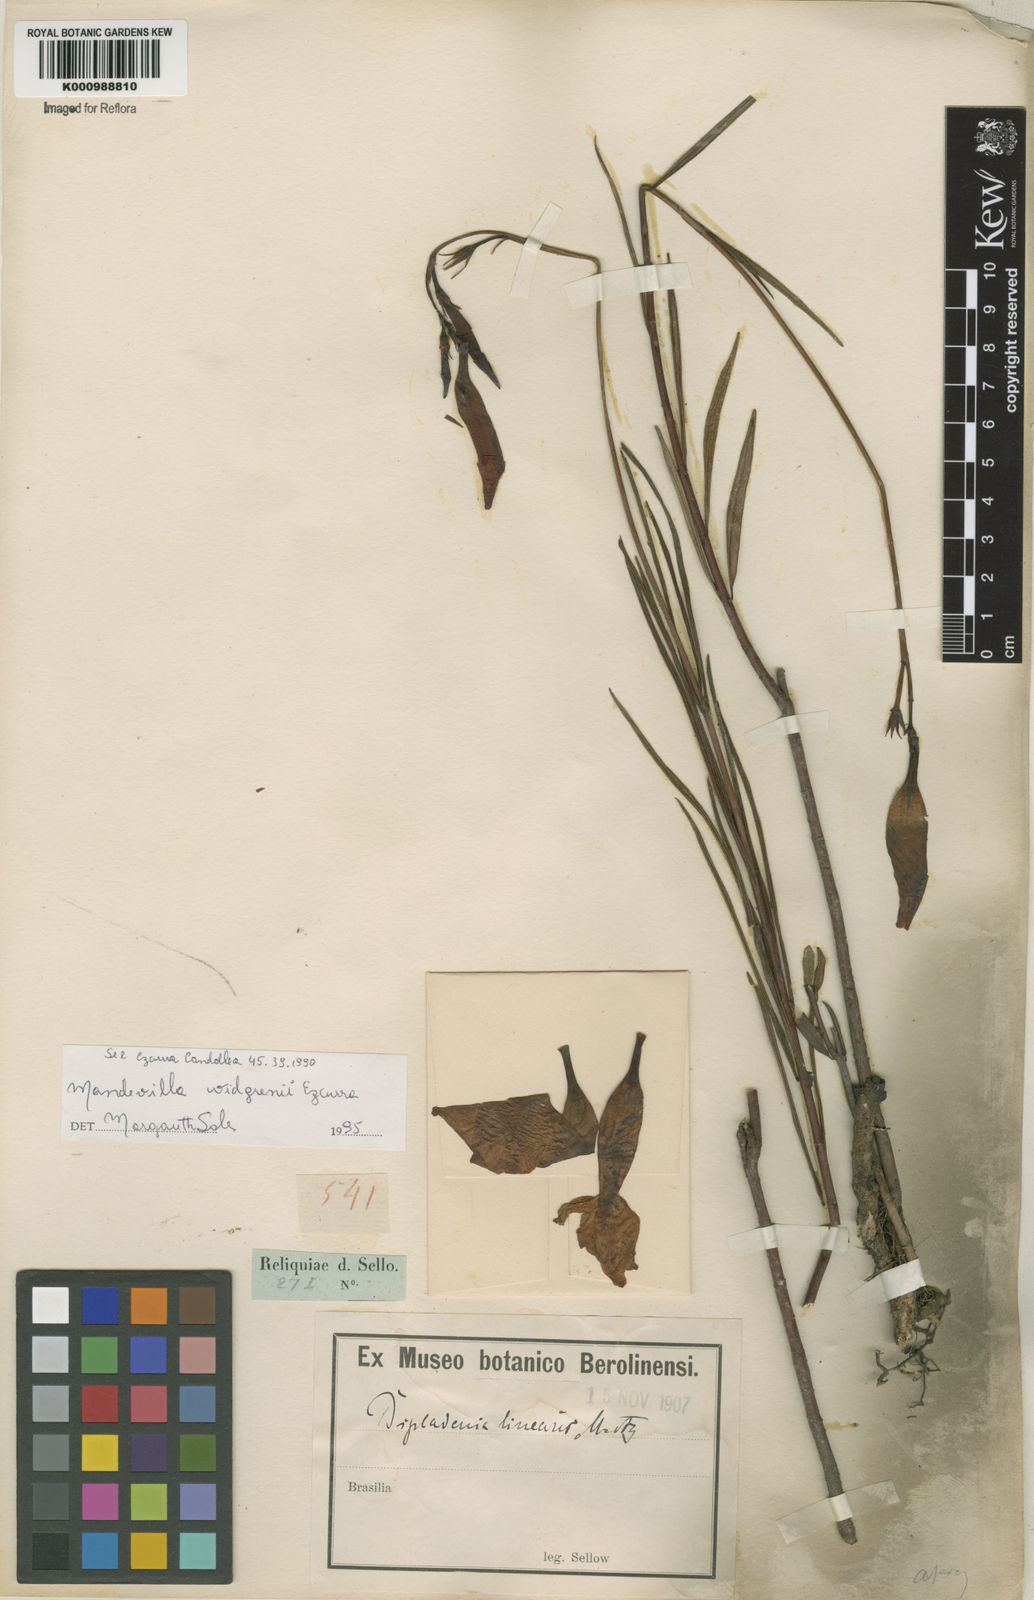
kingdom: Plantae
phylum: Tracheophyta
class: Magnoliopsida
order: Gentianales
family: Apocynaceae
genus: Mandevilla
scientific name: Mandevilla widgrenii
